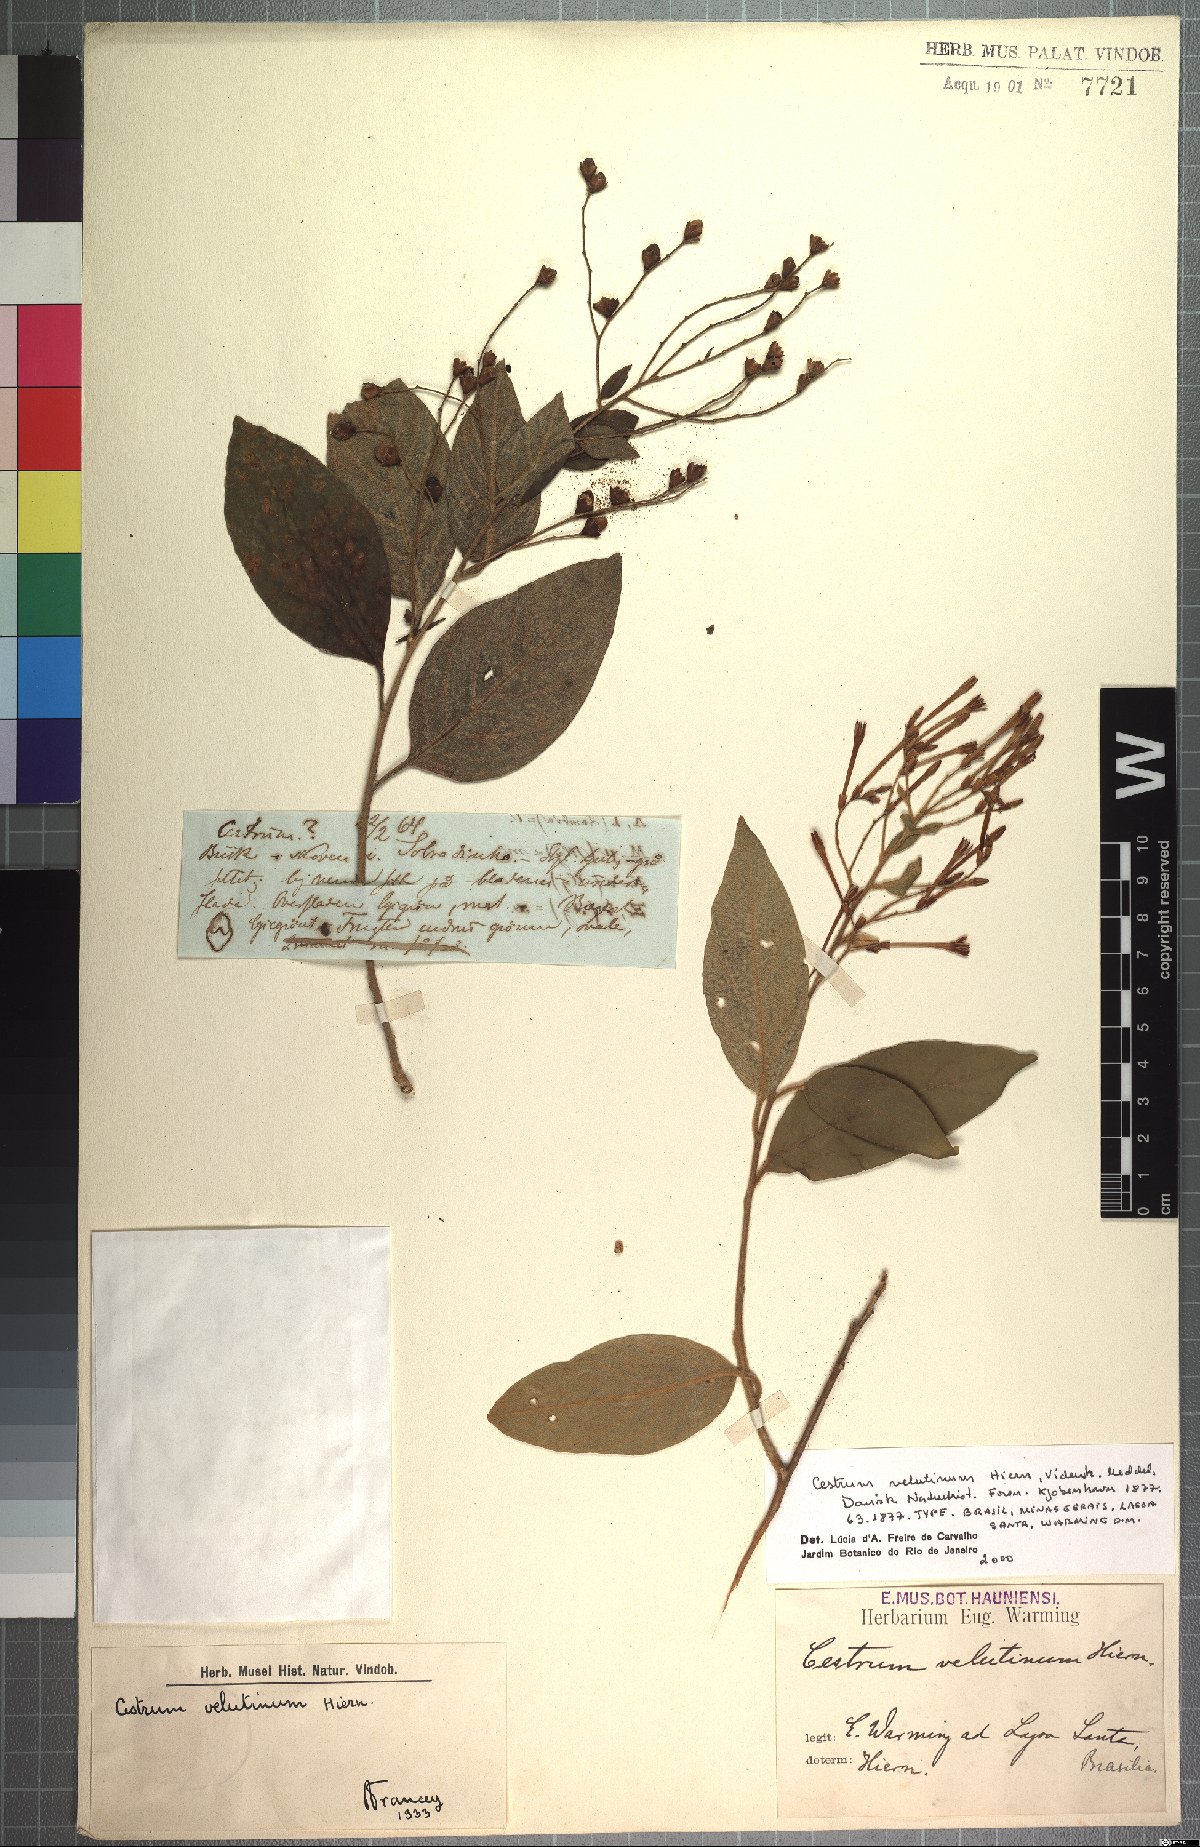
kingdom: Plantae
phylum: Tracheophyta
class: Magnoliopsida
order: Solanales
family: Solanaceae
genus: Cestrum
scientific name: Cestrum velutinum
